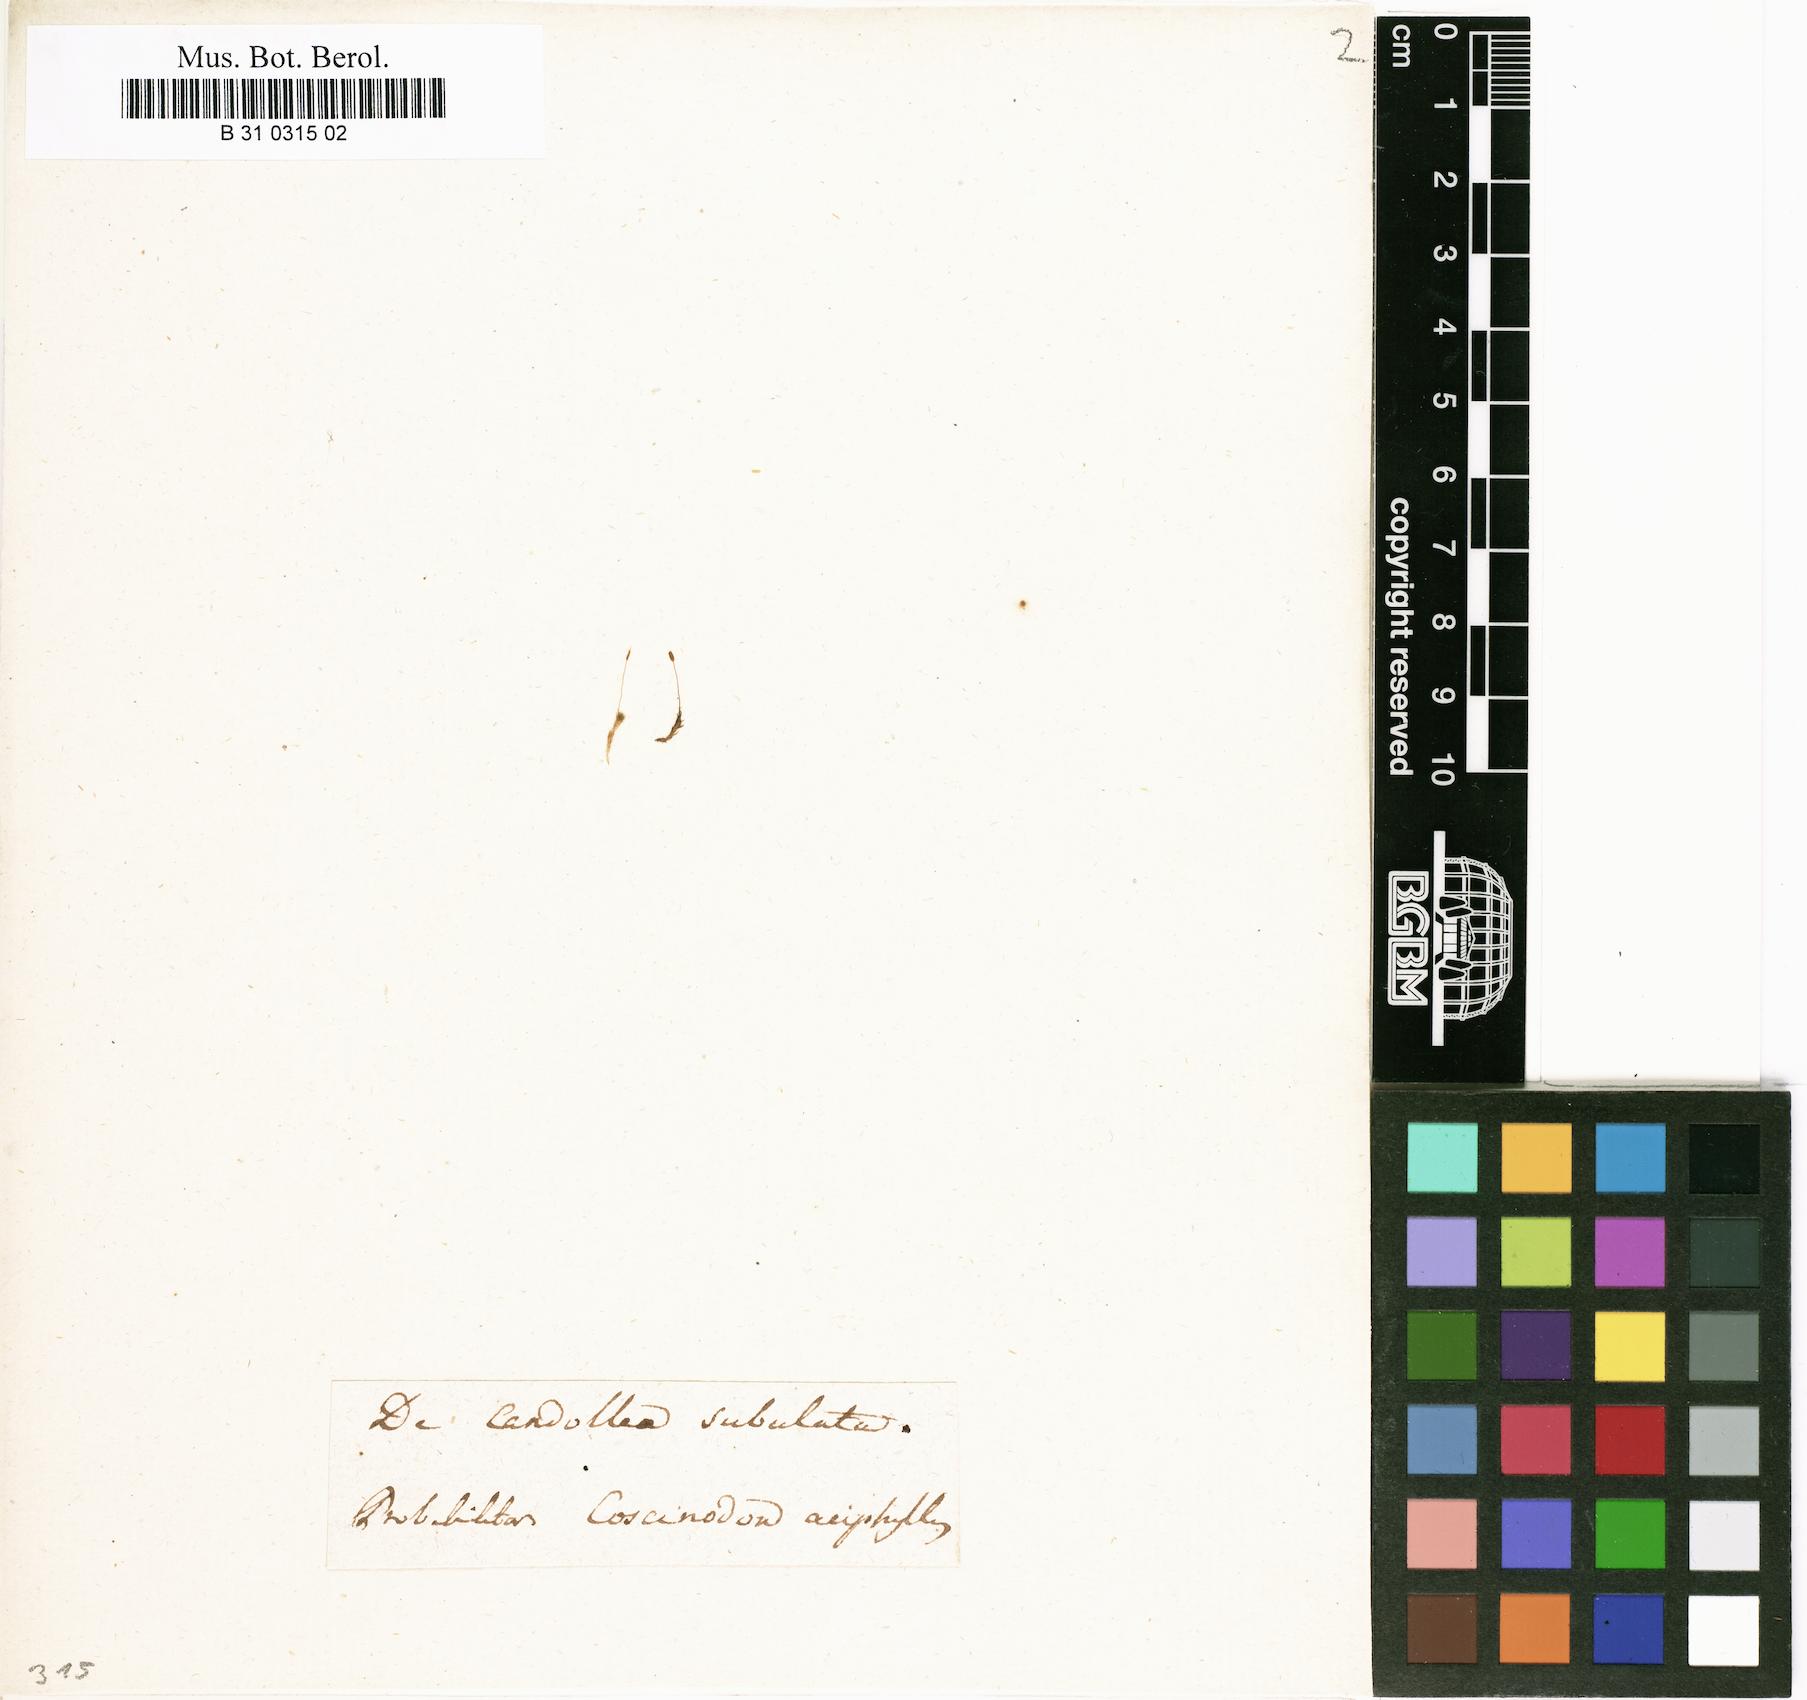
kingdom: Plantae
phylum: Bryophyta
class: Bryopsida
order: Pottiales
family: Pottiaceae
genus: Tortula
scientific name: Tortula lindbergii
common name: Lance-leaved pottia
